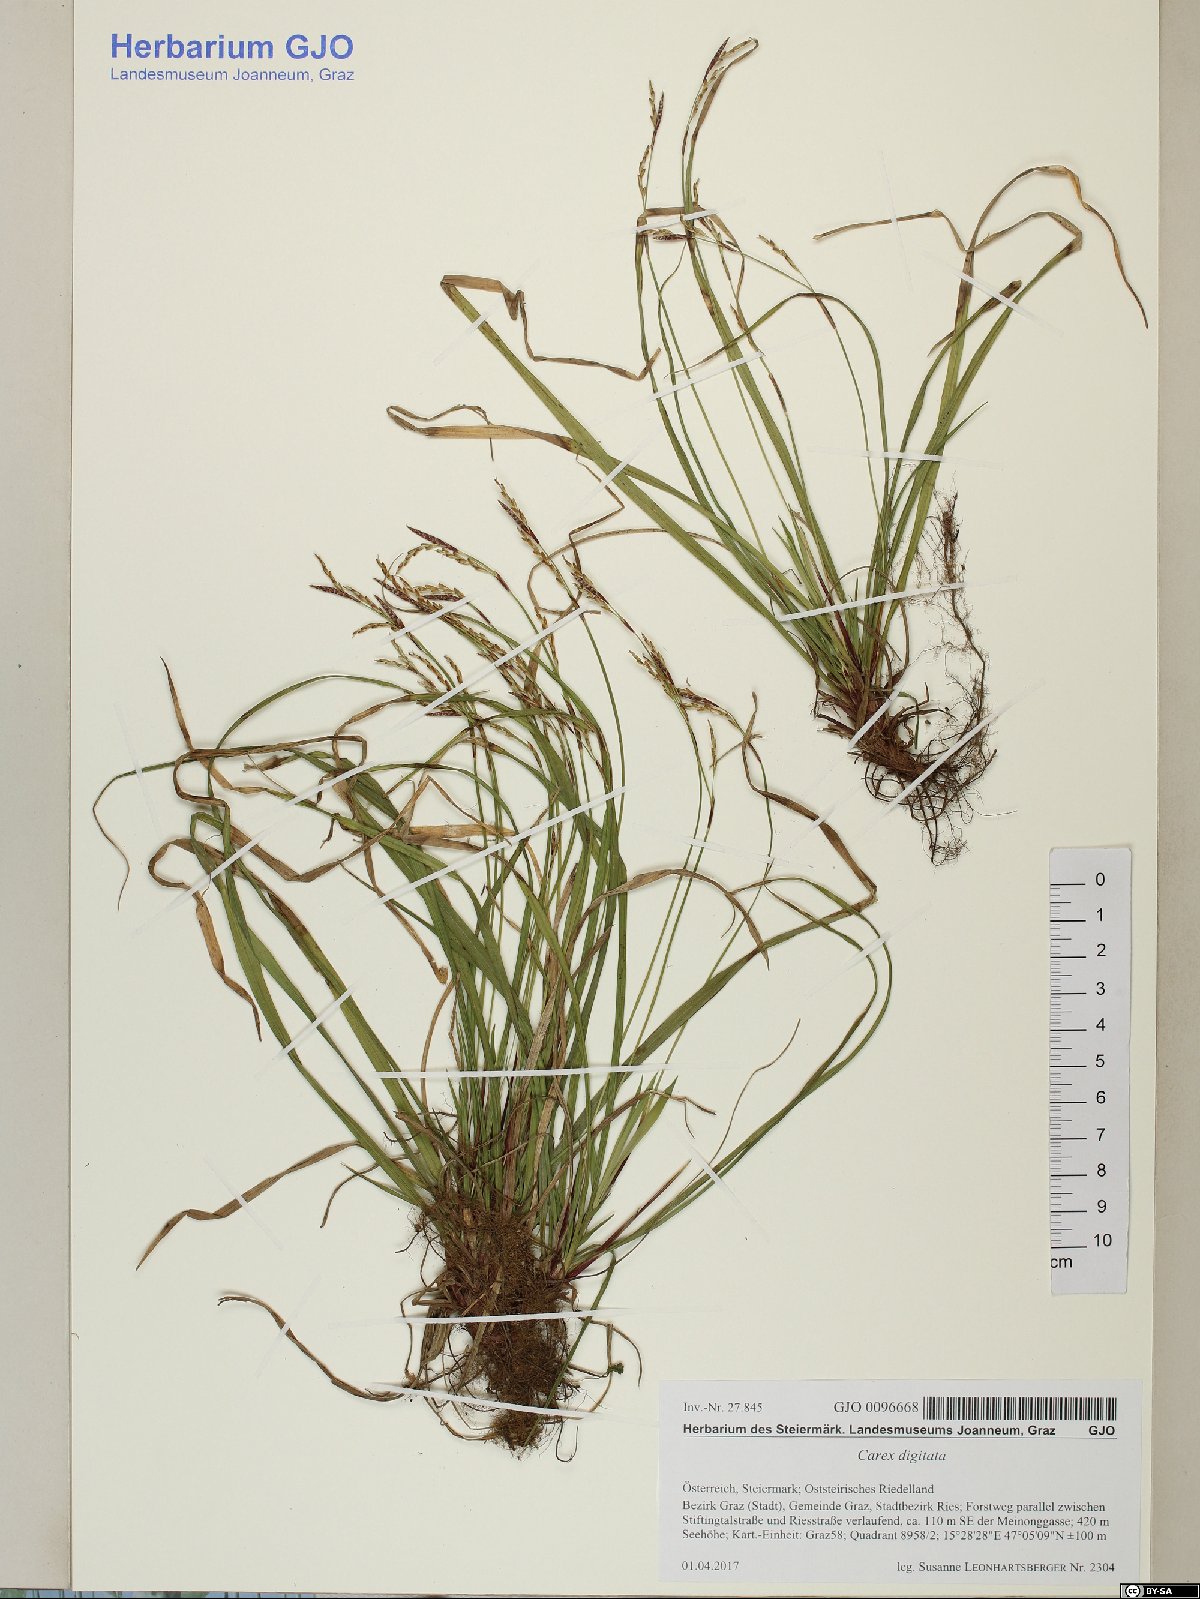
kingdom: Plantae
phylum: Tracheophyta
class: Liliopsida
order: Poales
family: Cyperaceae
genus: Carex
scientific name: Carex digitata
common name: Fingered sedge
